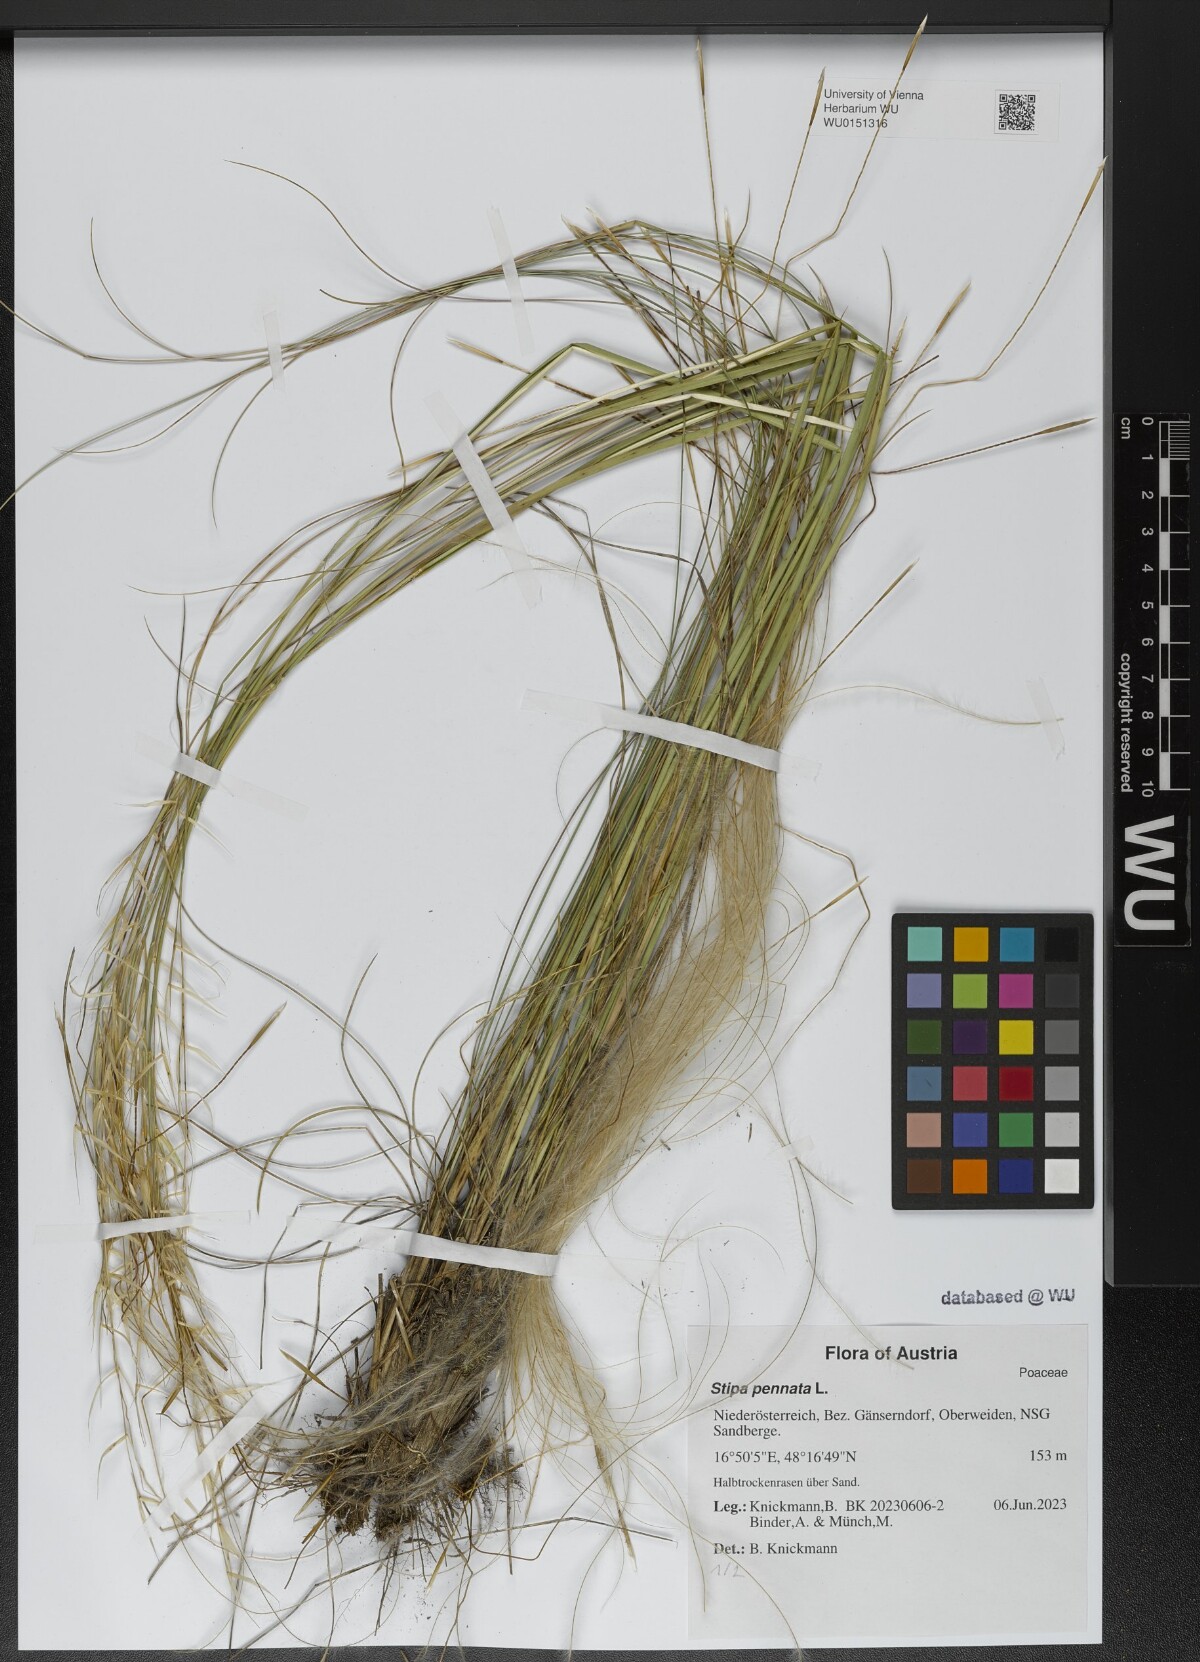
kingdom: Plantae
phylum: Tracheophyta
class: Liliopsida
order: Poales
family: Poaceae
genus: Stipa
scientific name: Stipa pennata
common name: European feather grass
